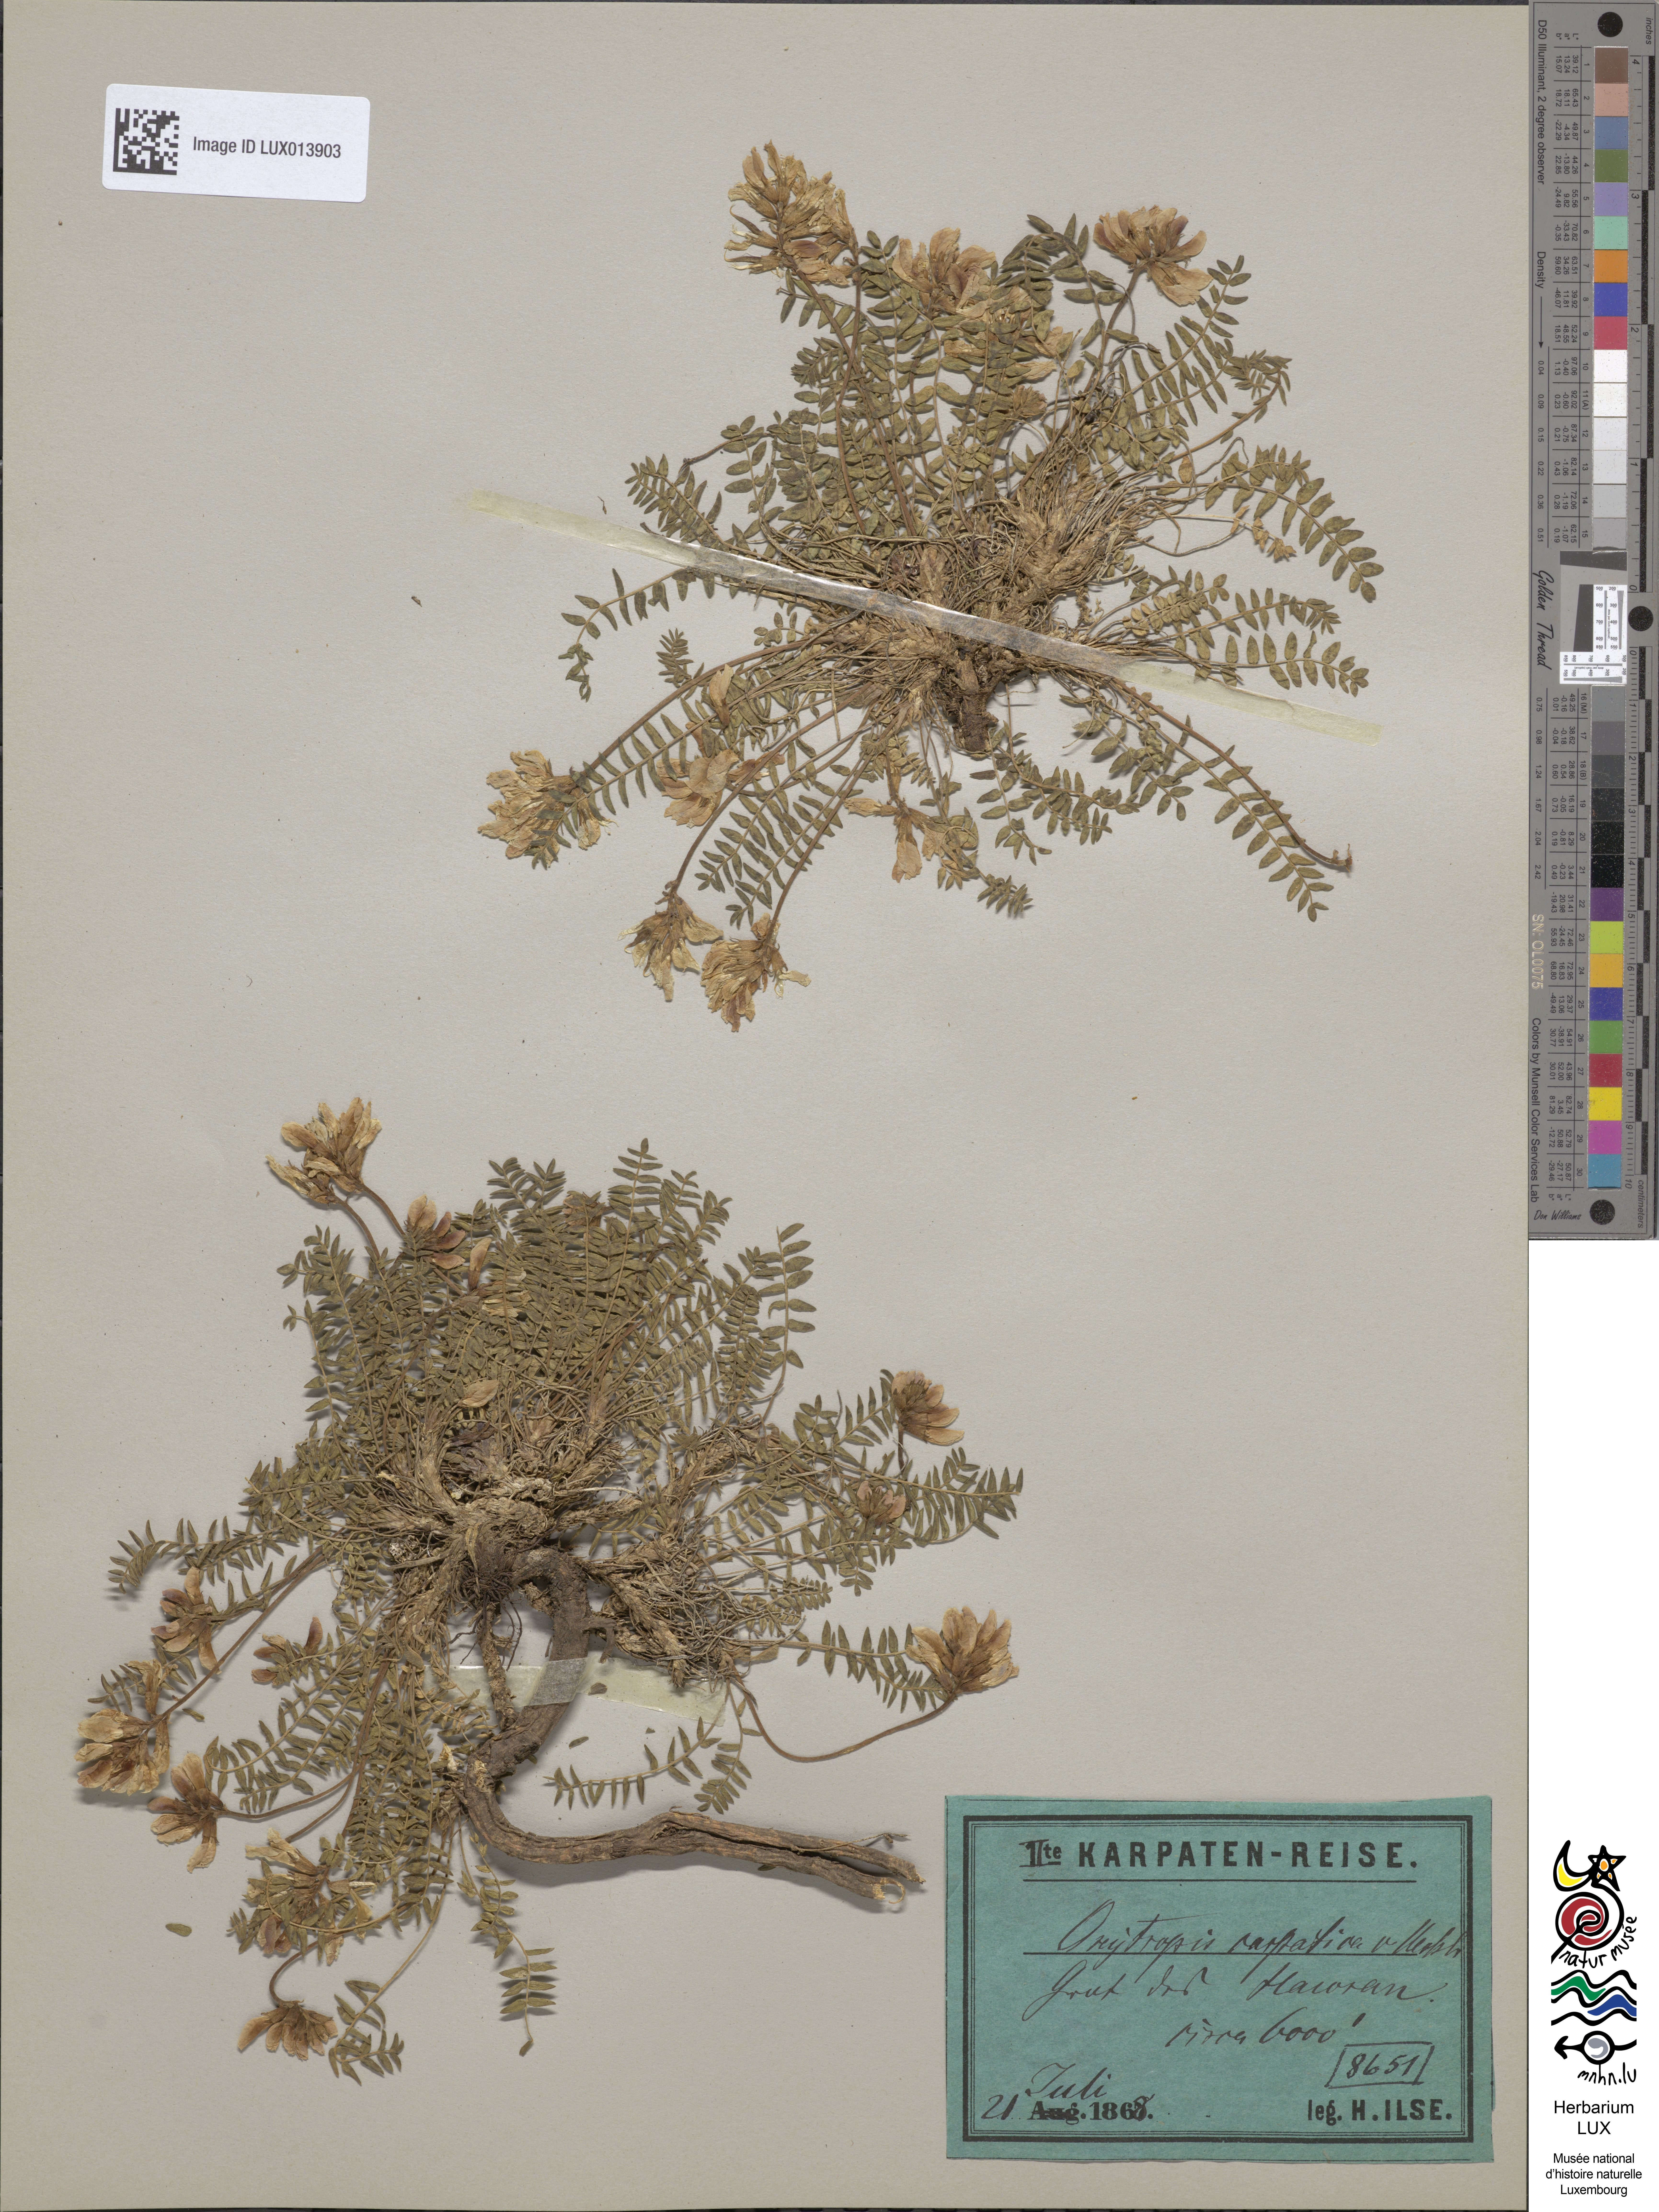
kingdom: Plantae
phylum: Tracheophyta
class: Magnoliopsida
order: Fabales
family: Fabaceae
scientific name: Fabaceae
